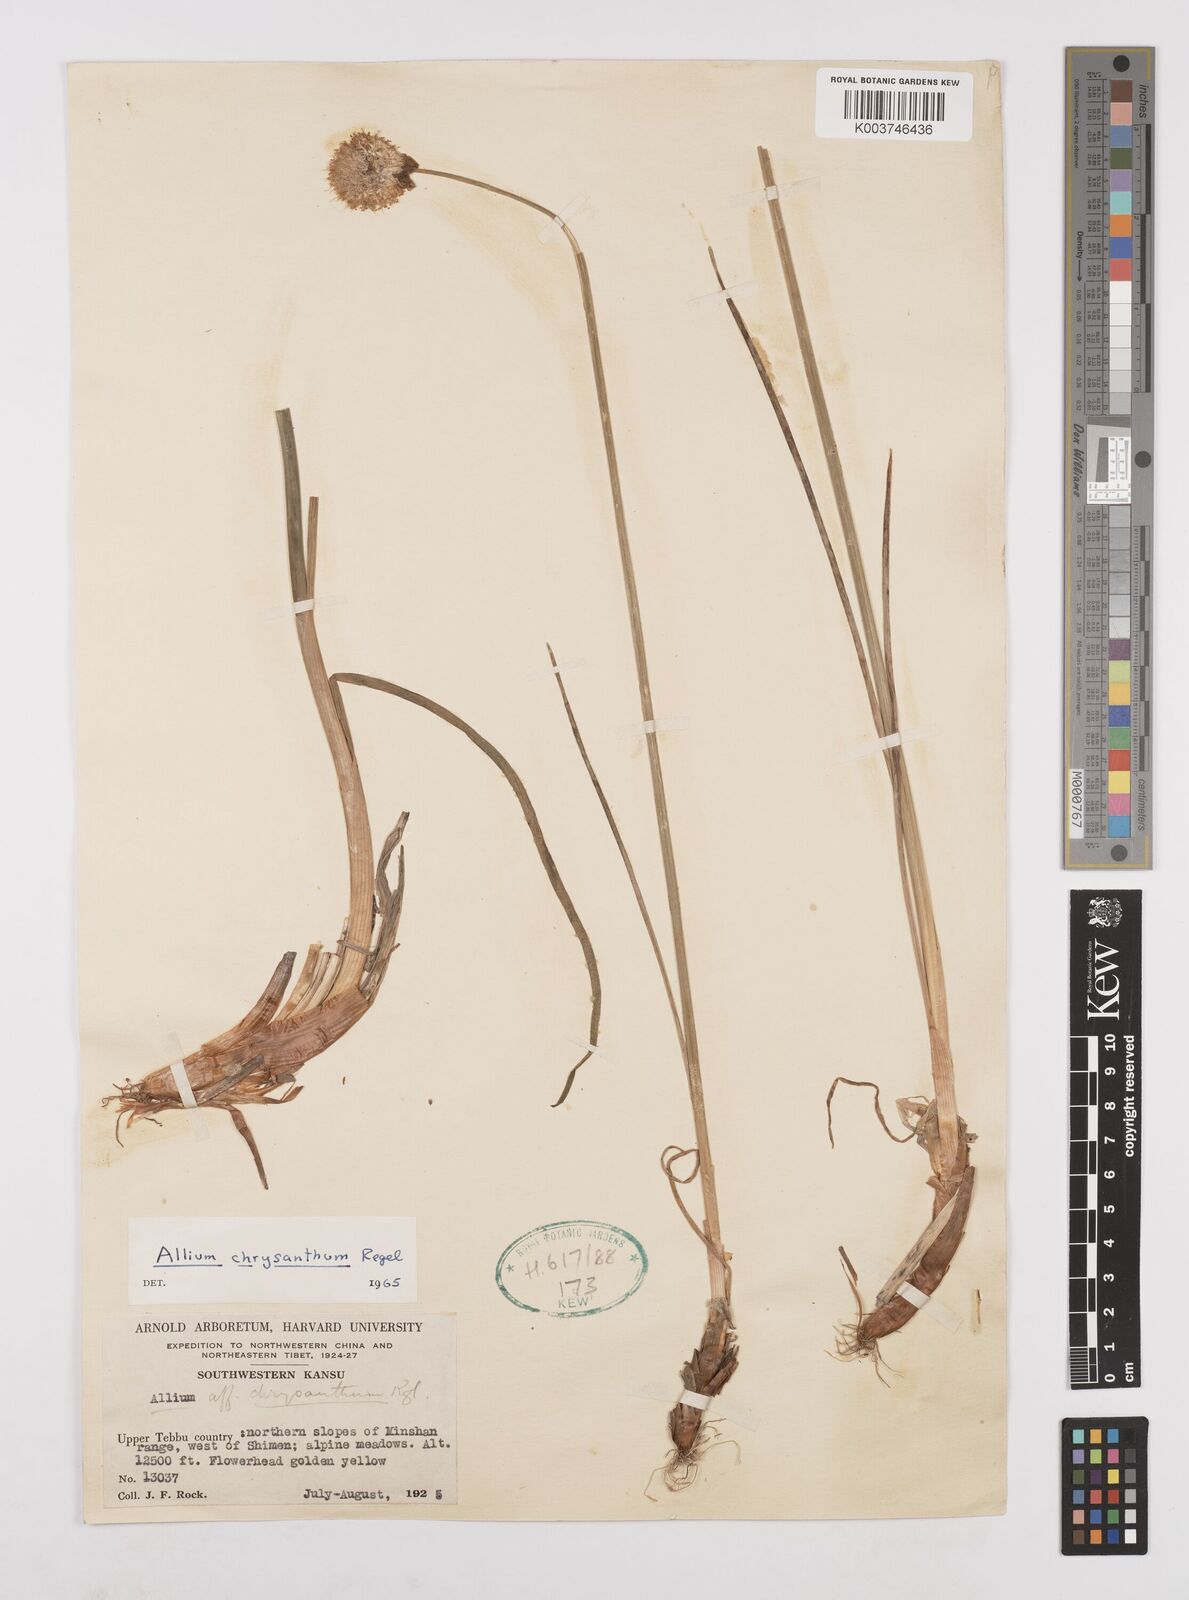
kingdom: Plantae
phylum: Tracheophyta
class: Liliopsida
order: Asparagales
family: Amaryllidaceae
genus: Allium
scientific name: Allium chrysanthum
